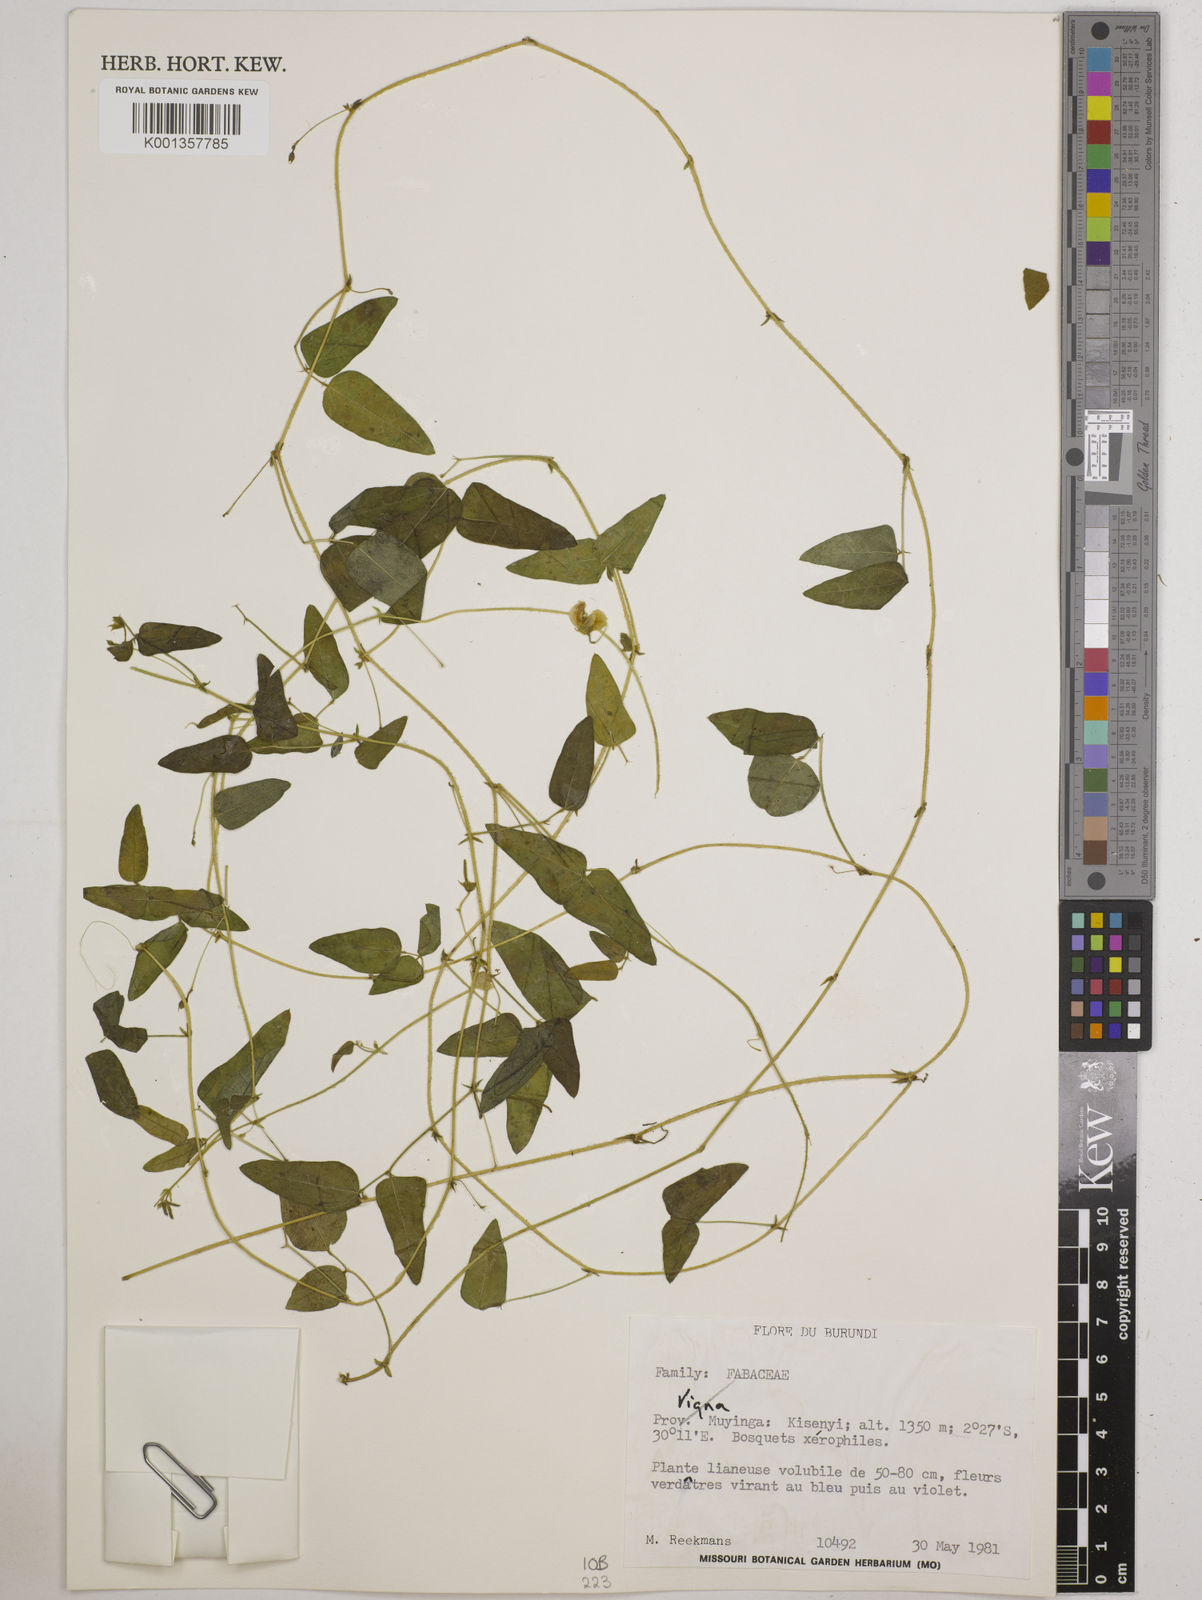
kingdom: Plantae
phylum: Tracheophyta
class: Magnoliopsida
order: Fabales
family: Fabaceae
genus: Vigna
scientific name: Vigna
